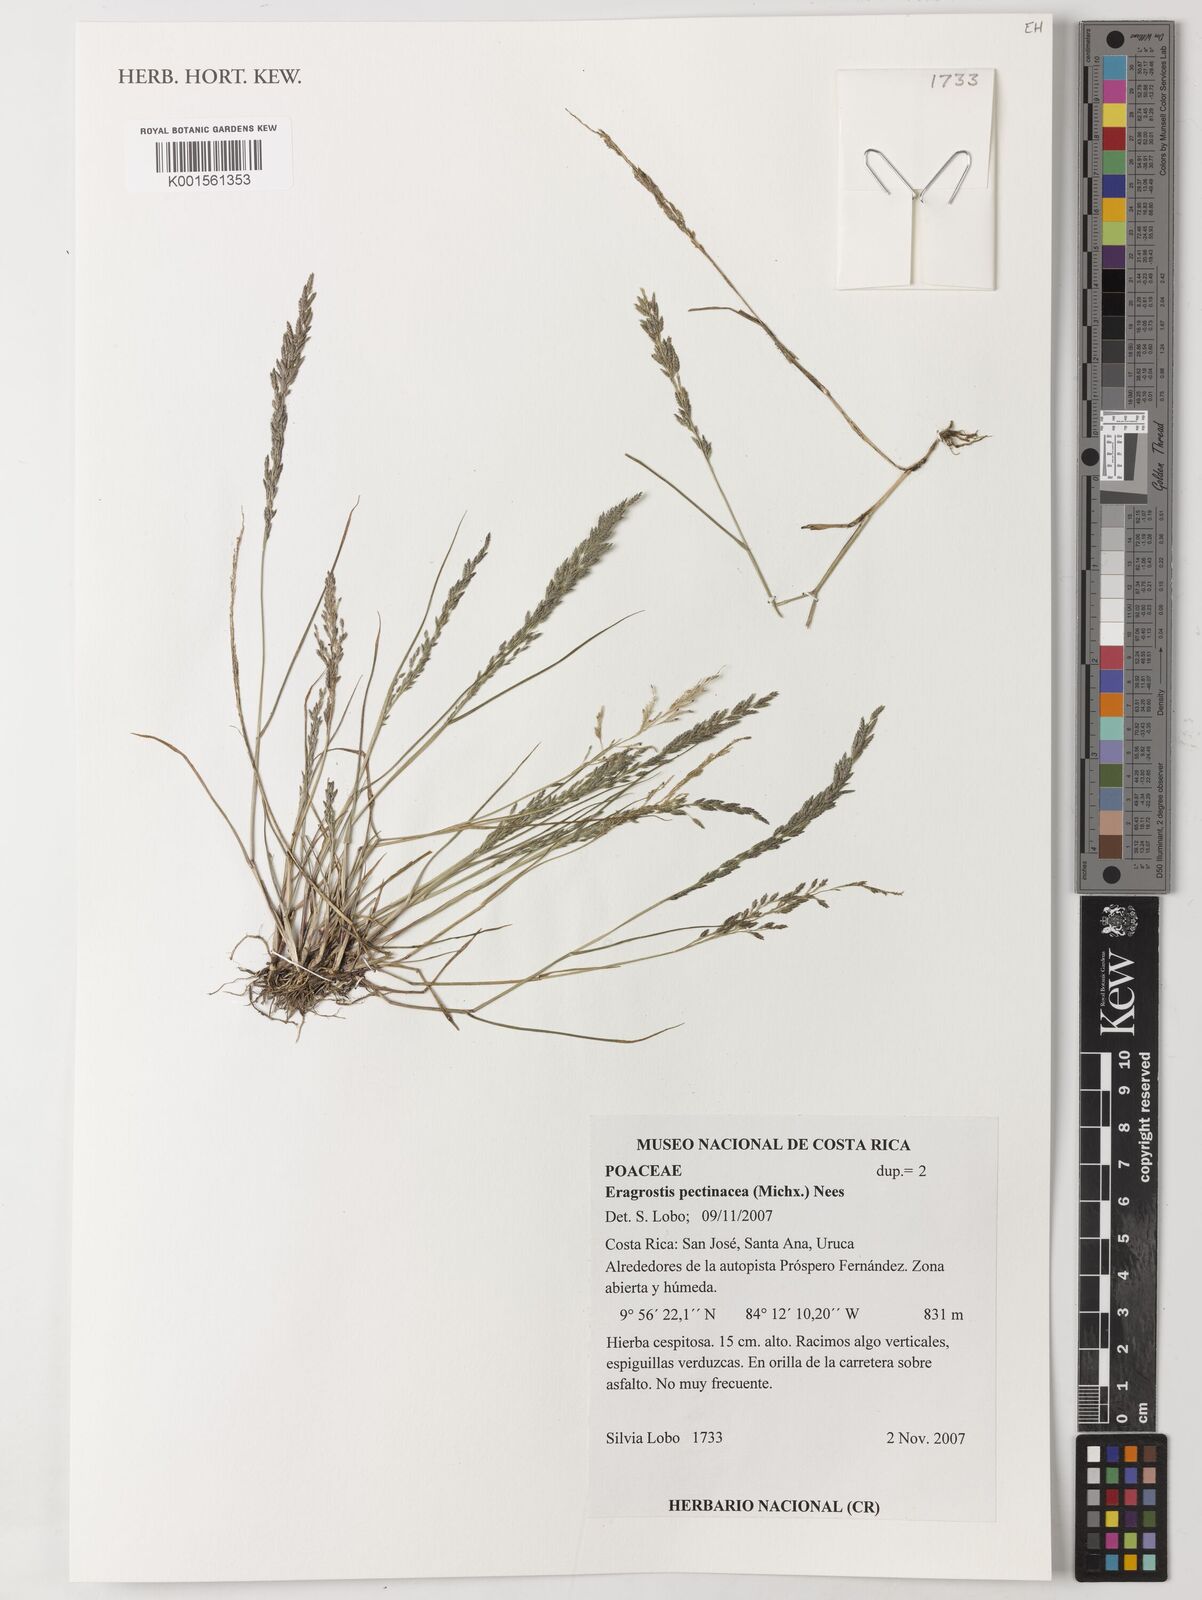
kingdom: Plantae
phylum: Tracheophyta
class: Liliopsida
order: Poales
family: Poaceae
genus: Eragrostis
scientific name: Eragrostis pectinacea
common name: Tufted lovegrass
